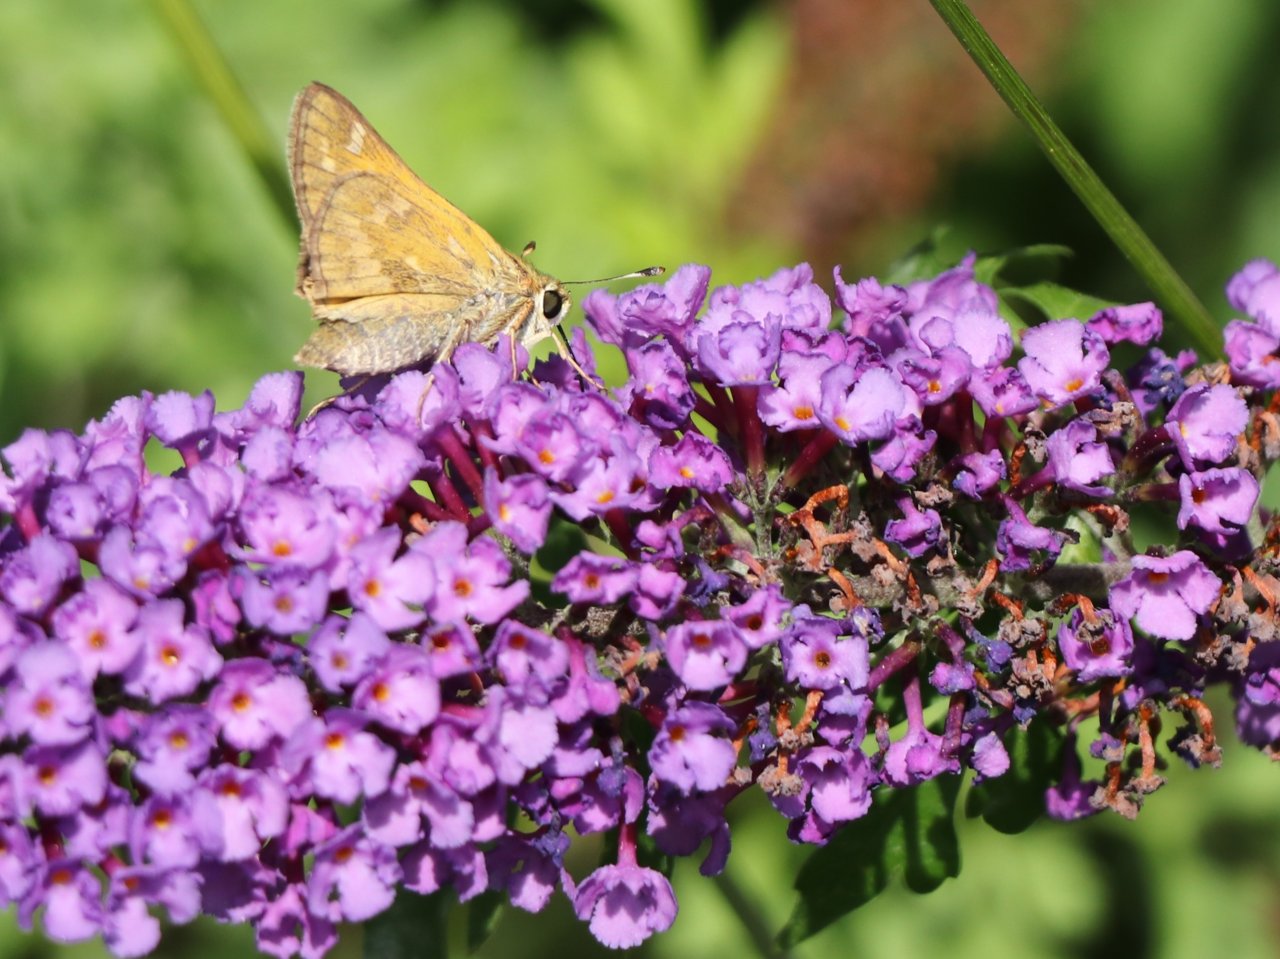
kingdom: Animalia
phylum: Arthropoda
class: Insecta
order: Lepidoptera
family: Hesperiidae
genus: Atalopedes
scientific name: Atalopedes campestris
